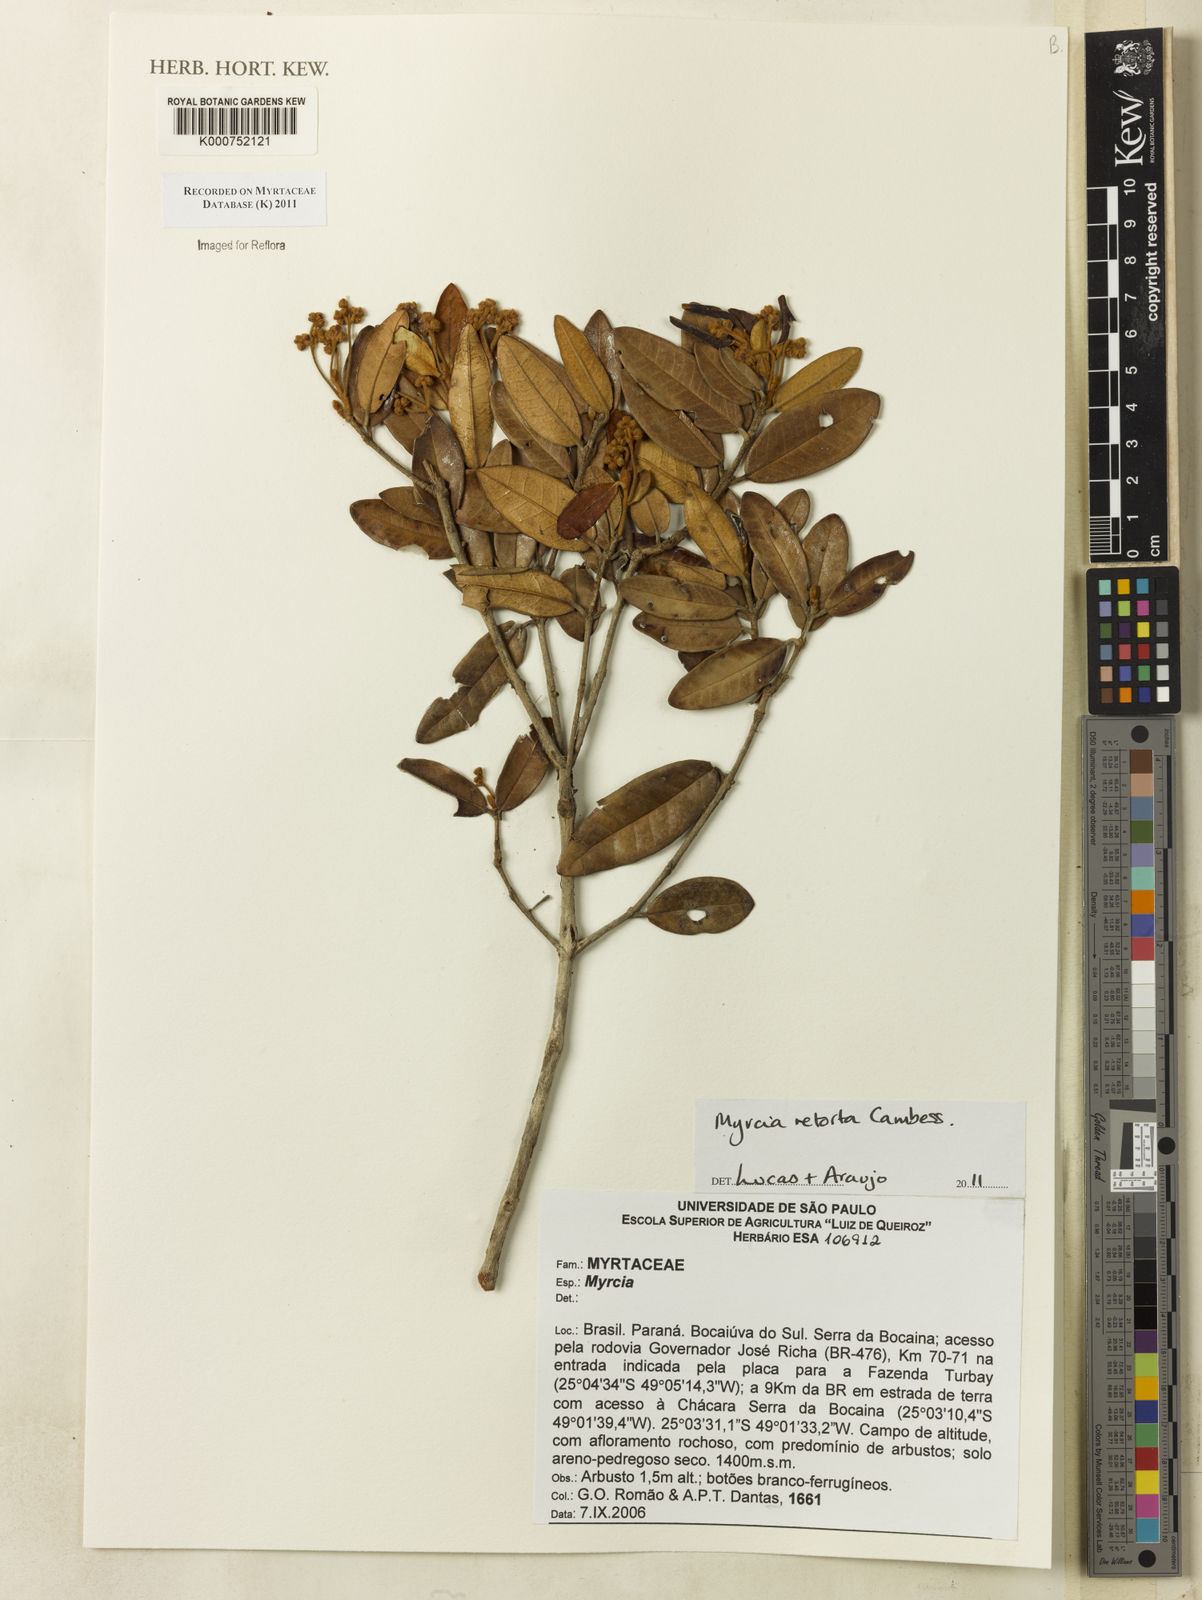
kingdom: Plantae
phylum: Tracheophyta
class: Magnoliopsida
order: Myrtales
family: Myrtaceae
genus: Myrcia
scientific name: Myrcia retorta
